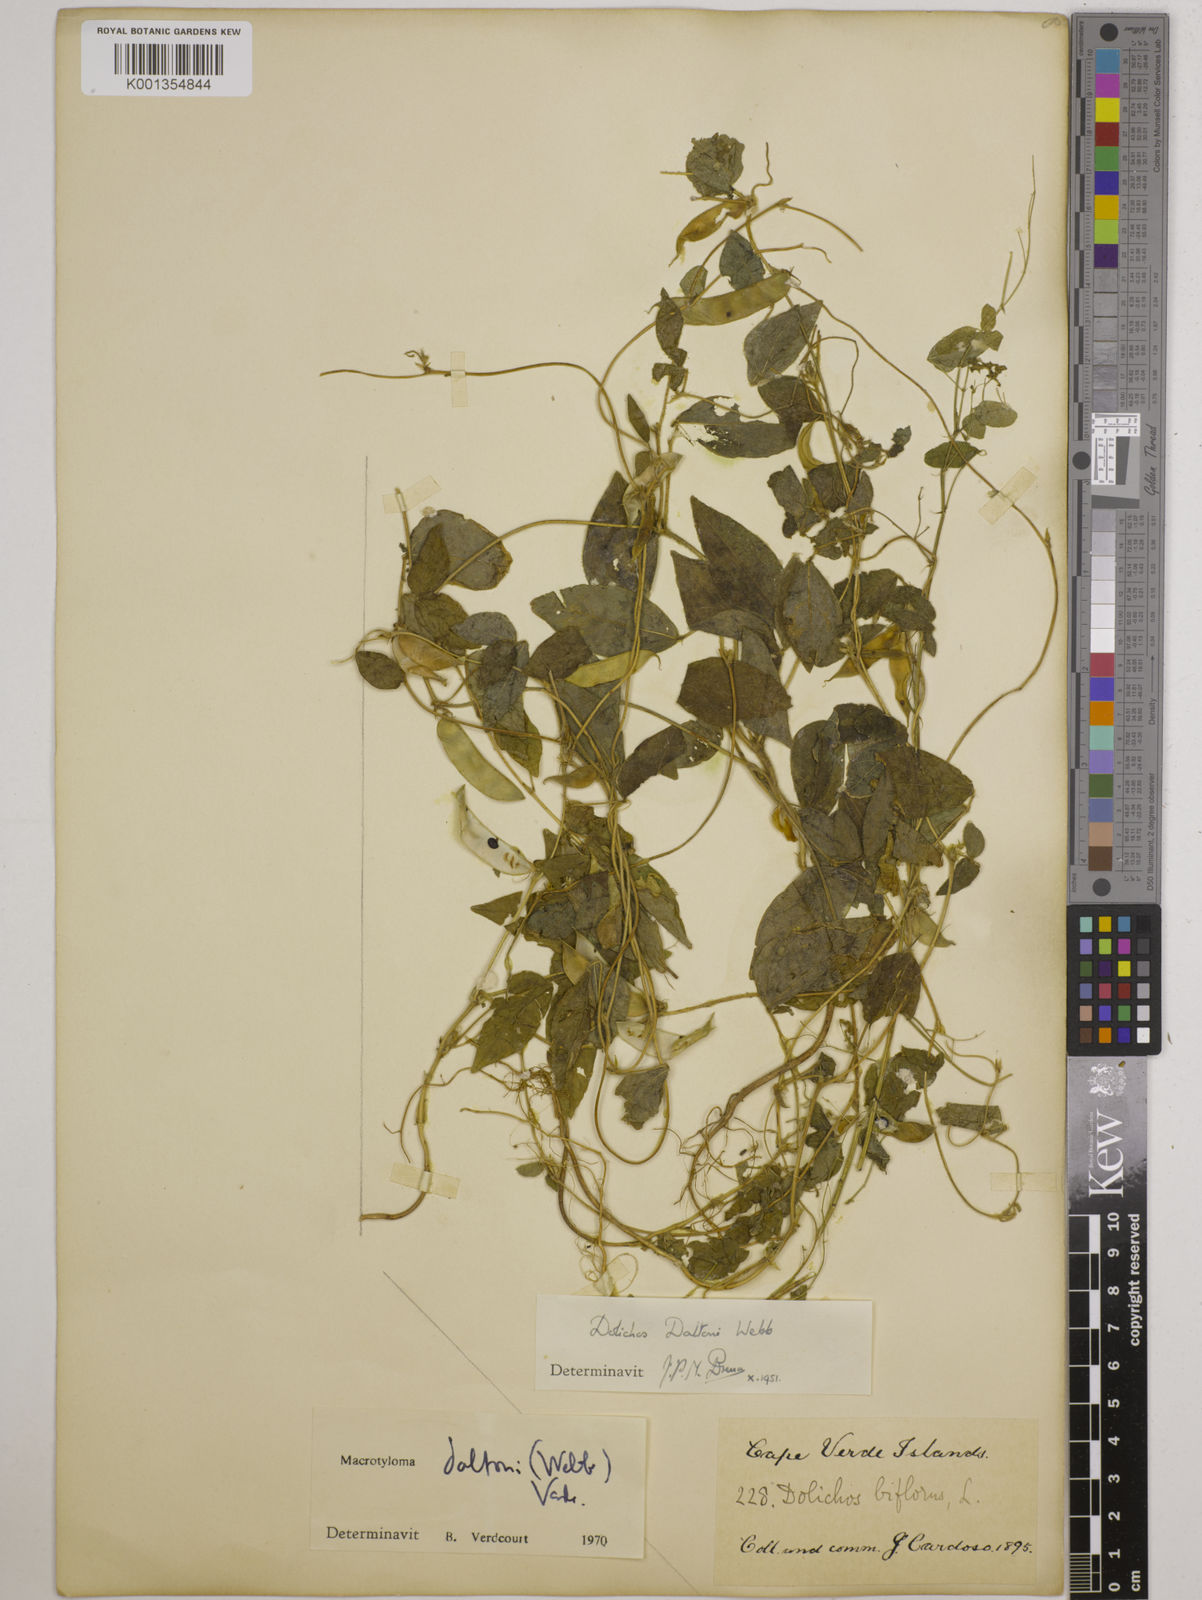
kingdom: Plantae
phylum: Tracheophyta
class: Magnoliopsida
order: Fabales
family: Fabaceae
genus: Macrotyloma
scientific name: Macrotyloma daltonii
